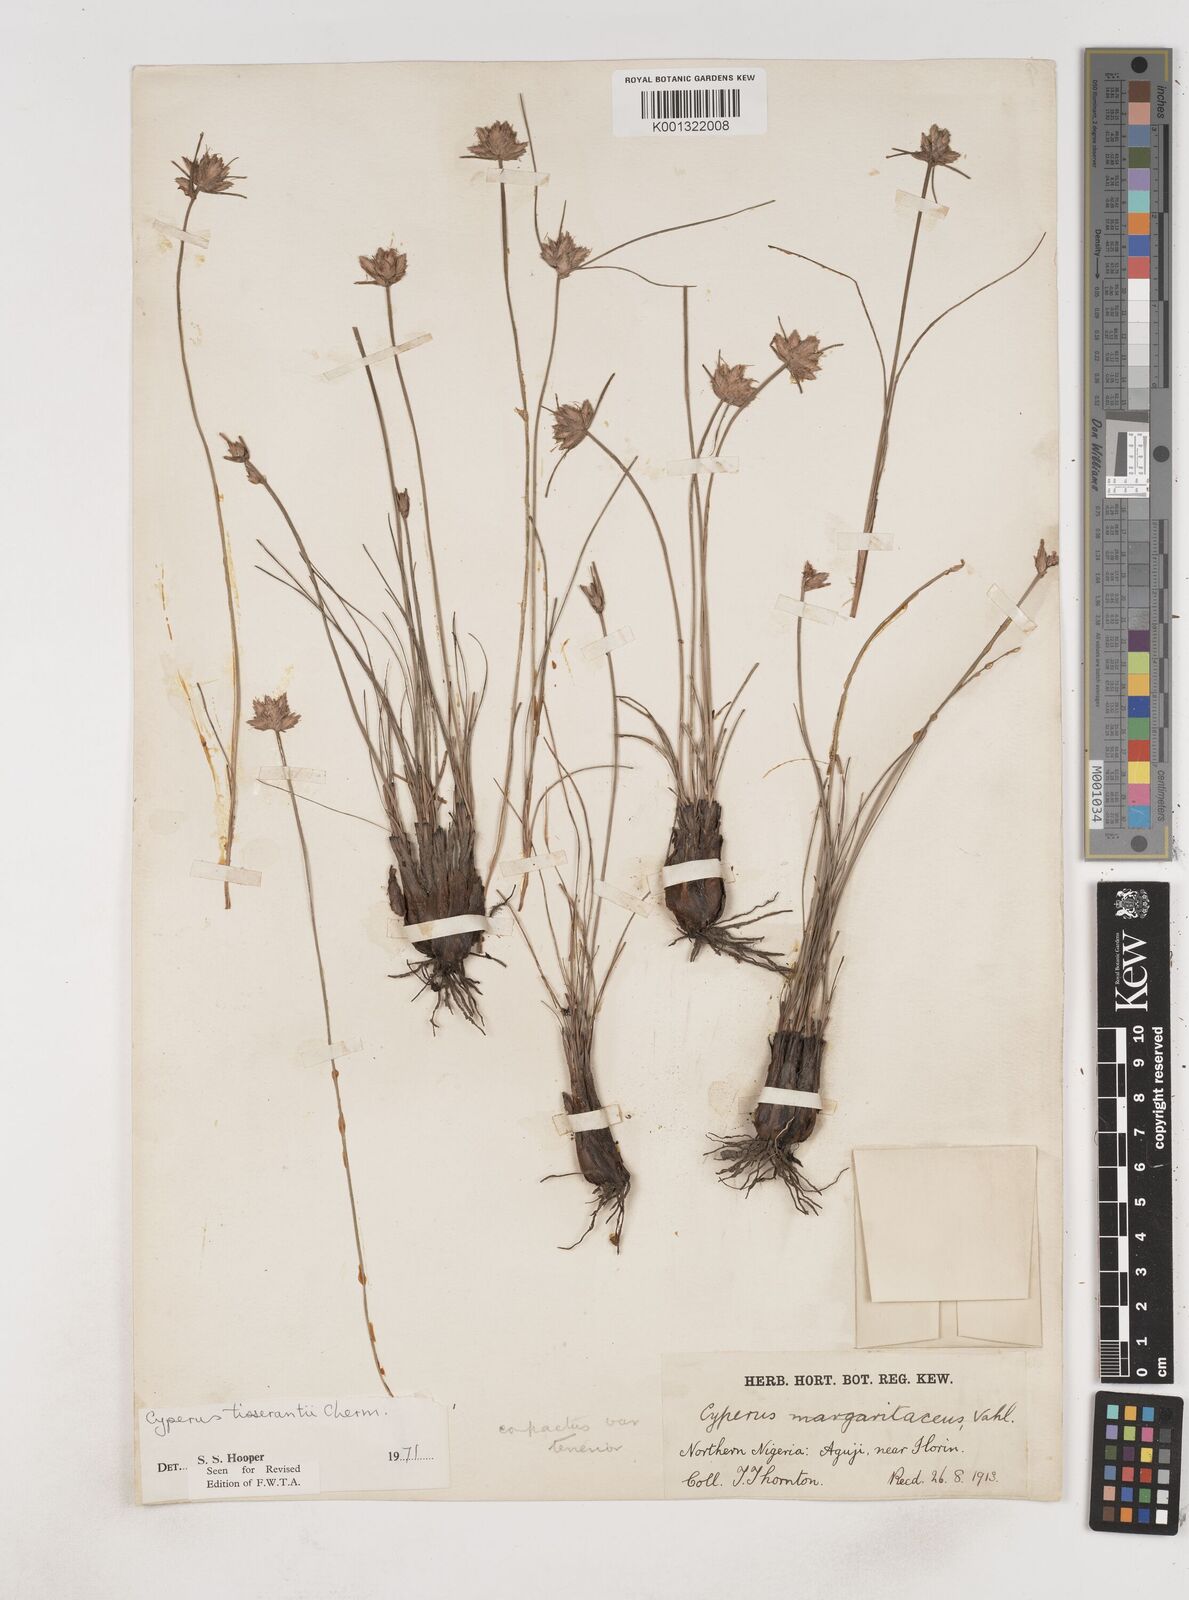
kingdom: Plantae
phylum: Tracheophyta
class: Liliopsida
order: Poales
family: Cyperaceae
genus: Cyperus
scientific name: Cyperus niveus
